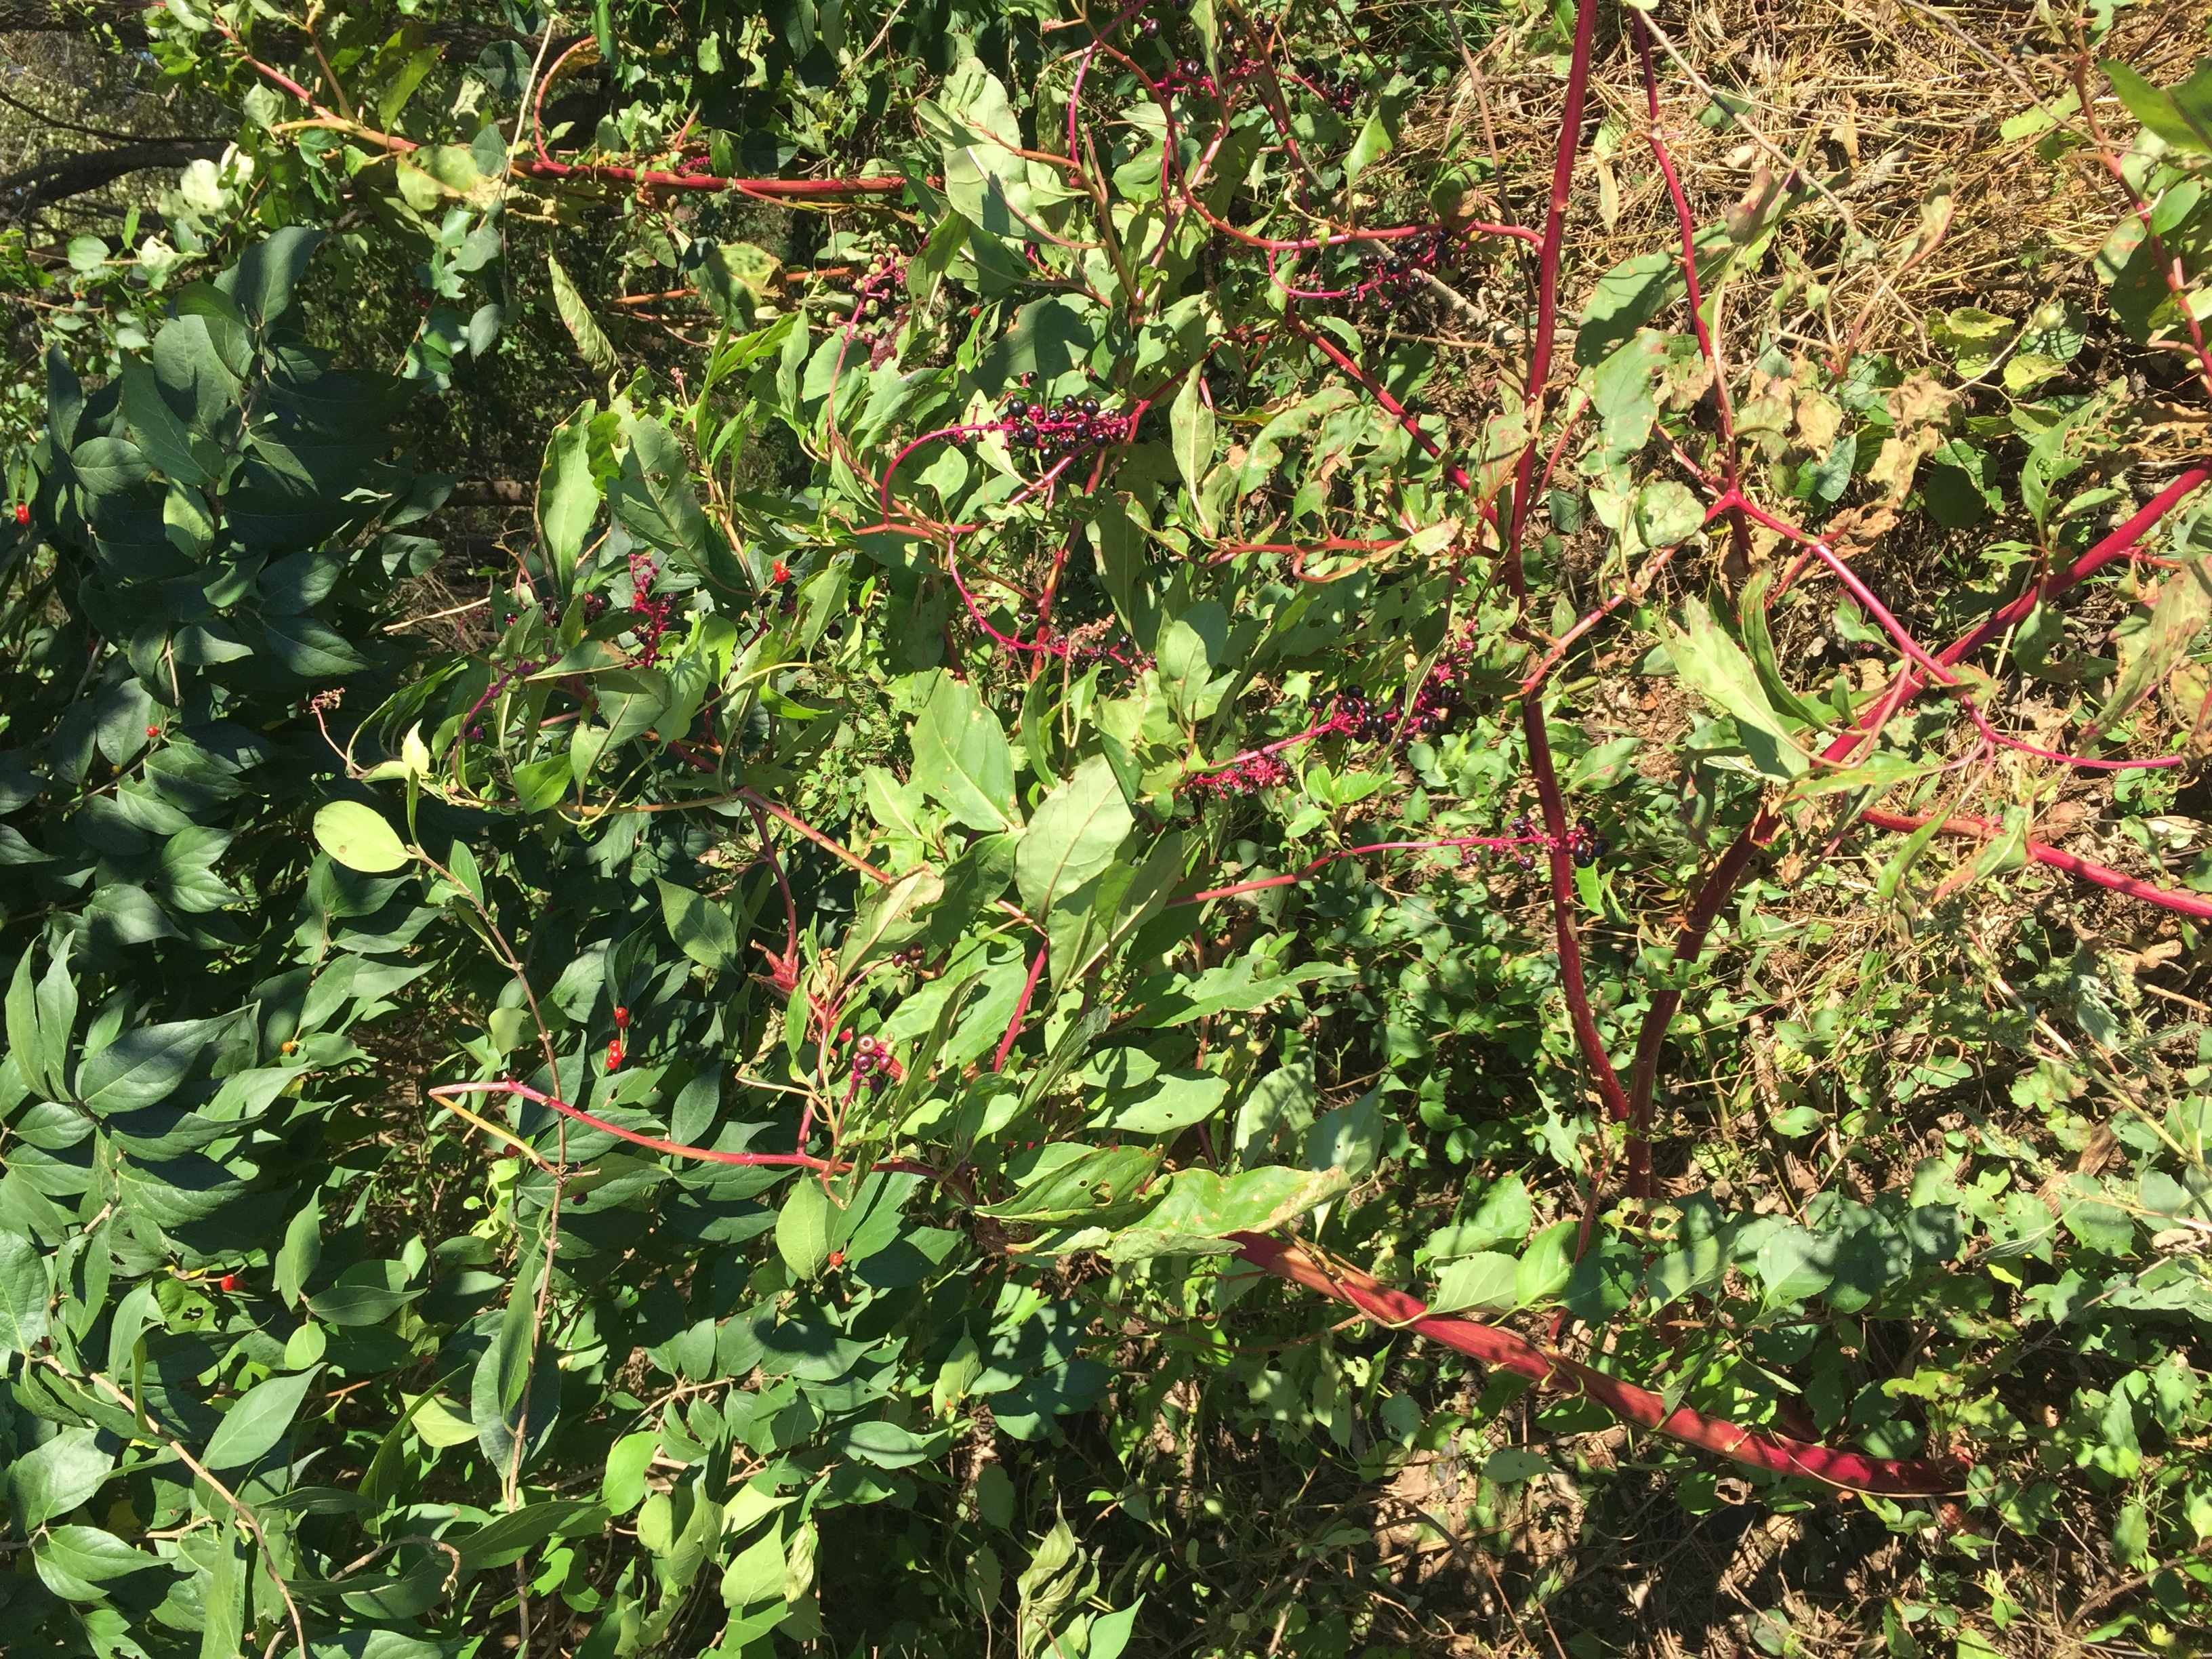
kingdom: Plantae
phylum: Tracheophyta
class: Magnoliopsida
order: Caryophyllales
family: Phytolaccaceae
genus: Phytolacca
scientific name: Phytolacca americana
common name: Pokeweed
